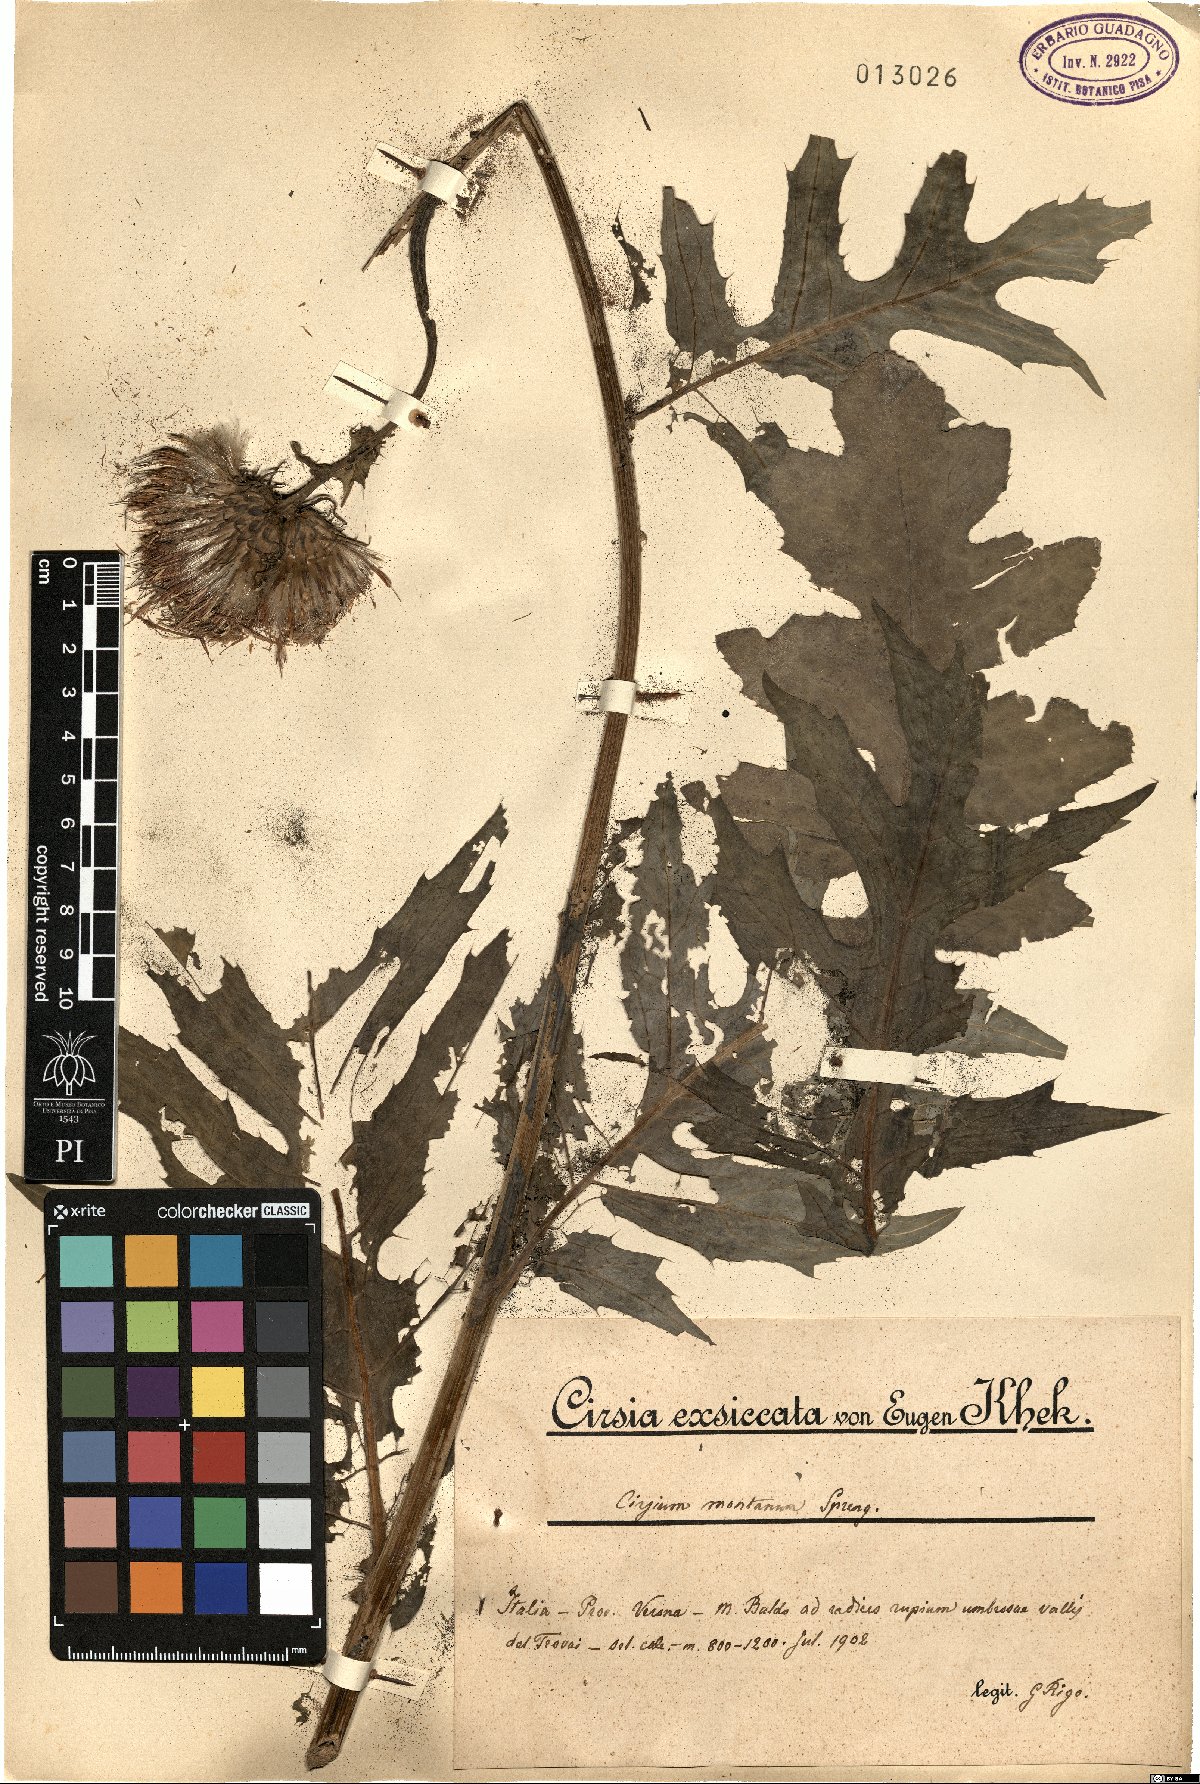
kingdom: Plantae
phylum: Tracheophyta
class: Magnoliopsida
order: Asterales
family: Asteraceae
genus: Cirsium
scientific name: Cirsium alsophilum
